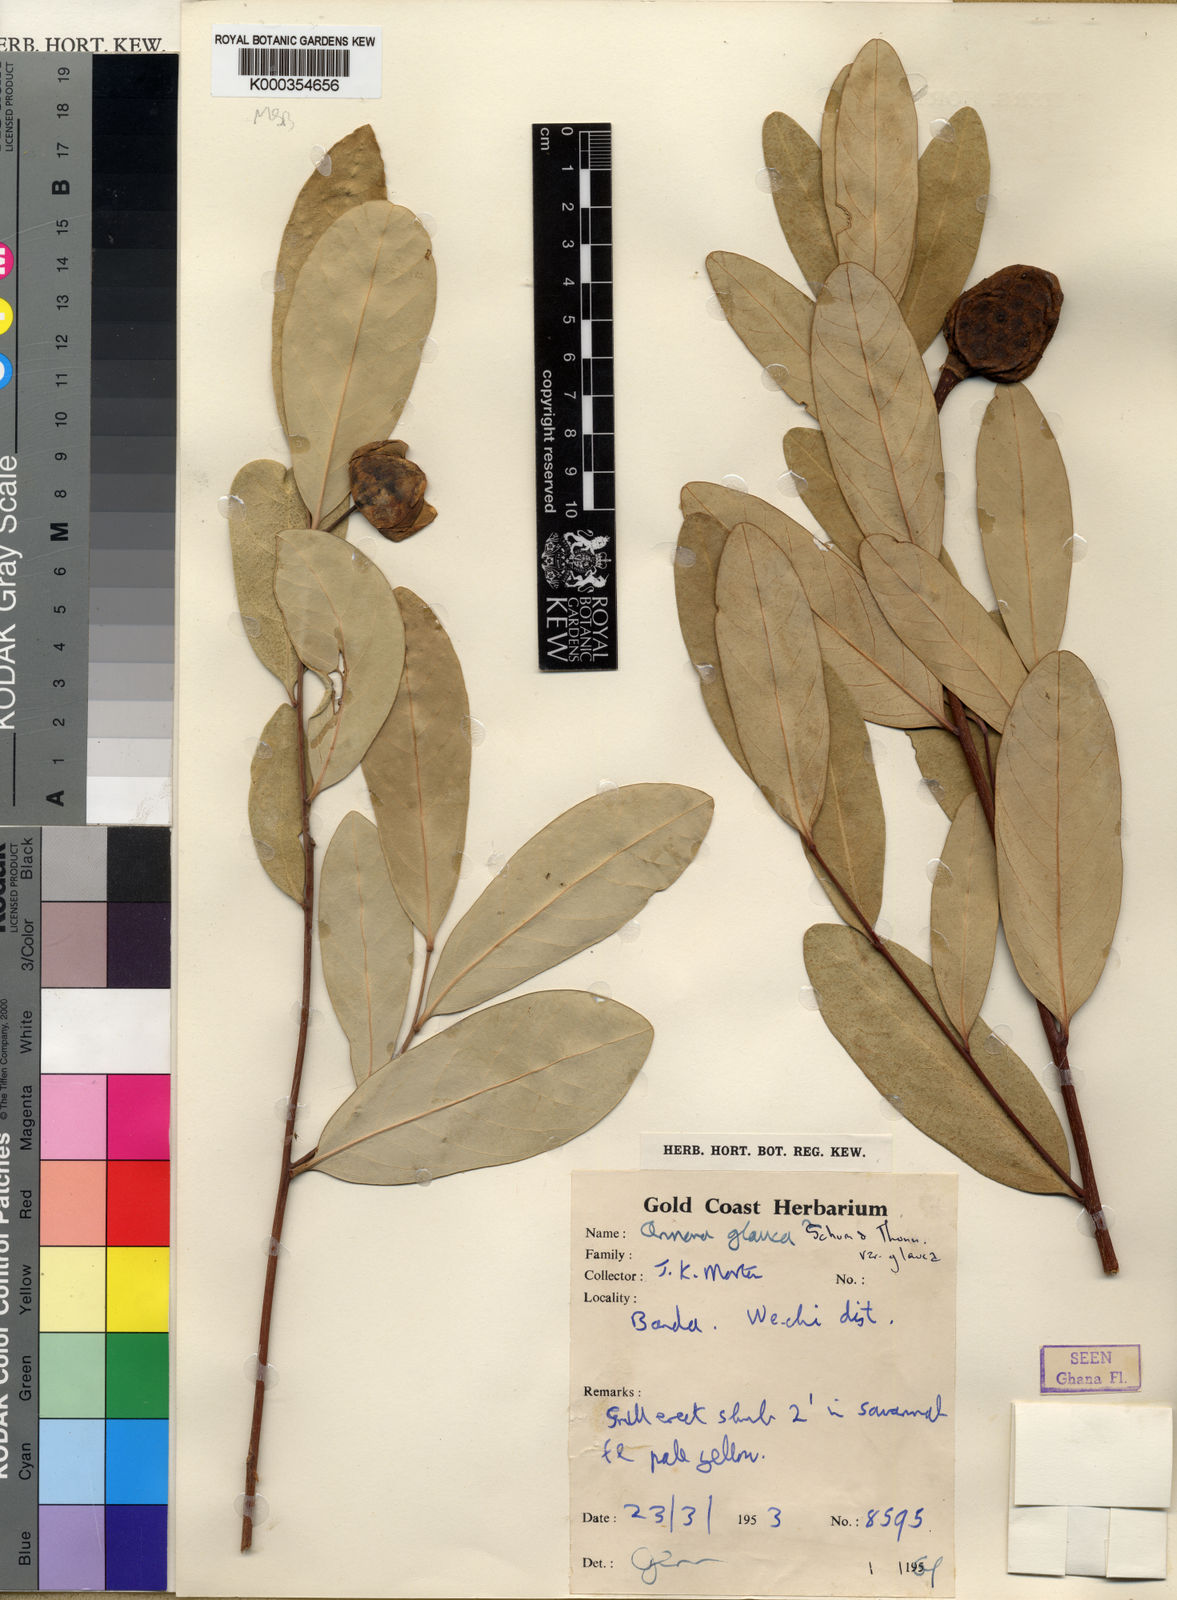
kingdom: Plantae
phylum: Tracheophyta
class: Magnoliopsida
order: Magnoliales
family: Annonaceae
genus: Annona
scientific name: Annona glauca
